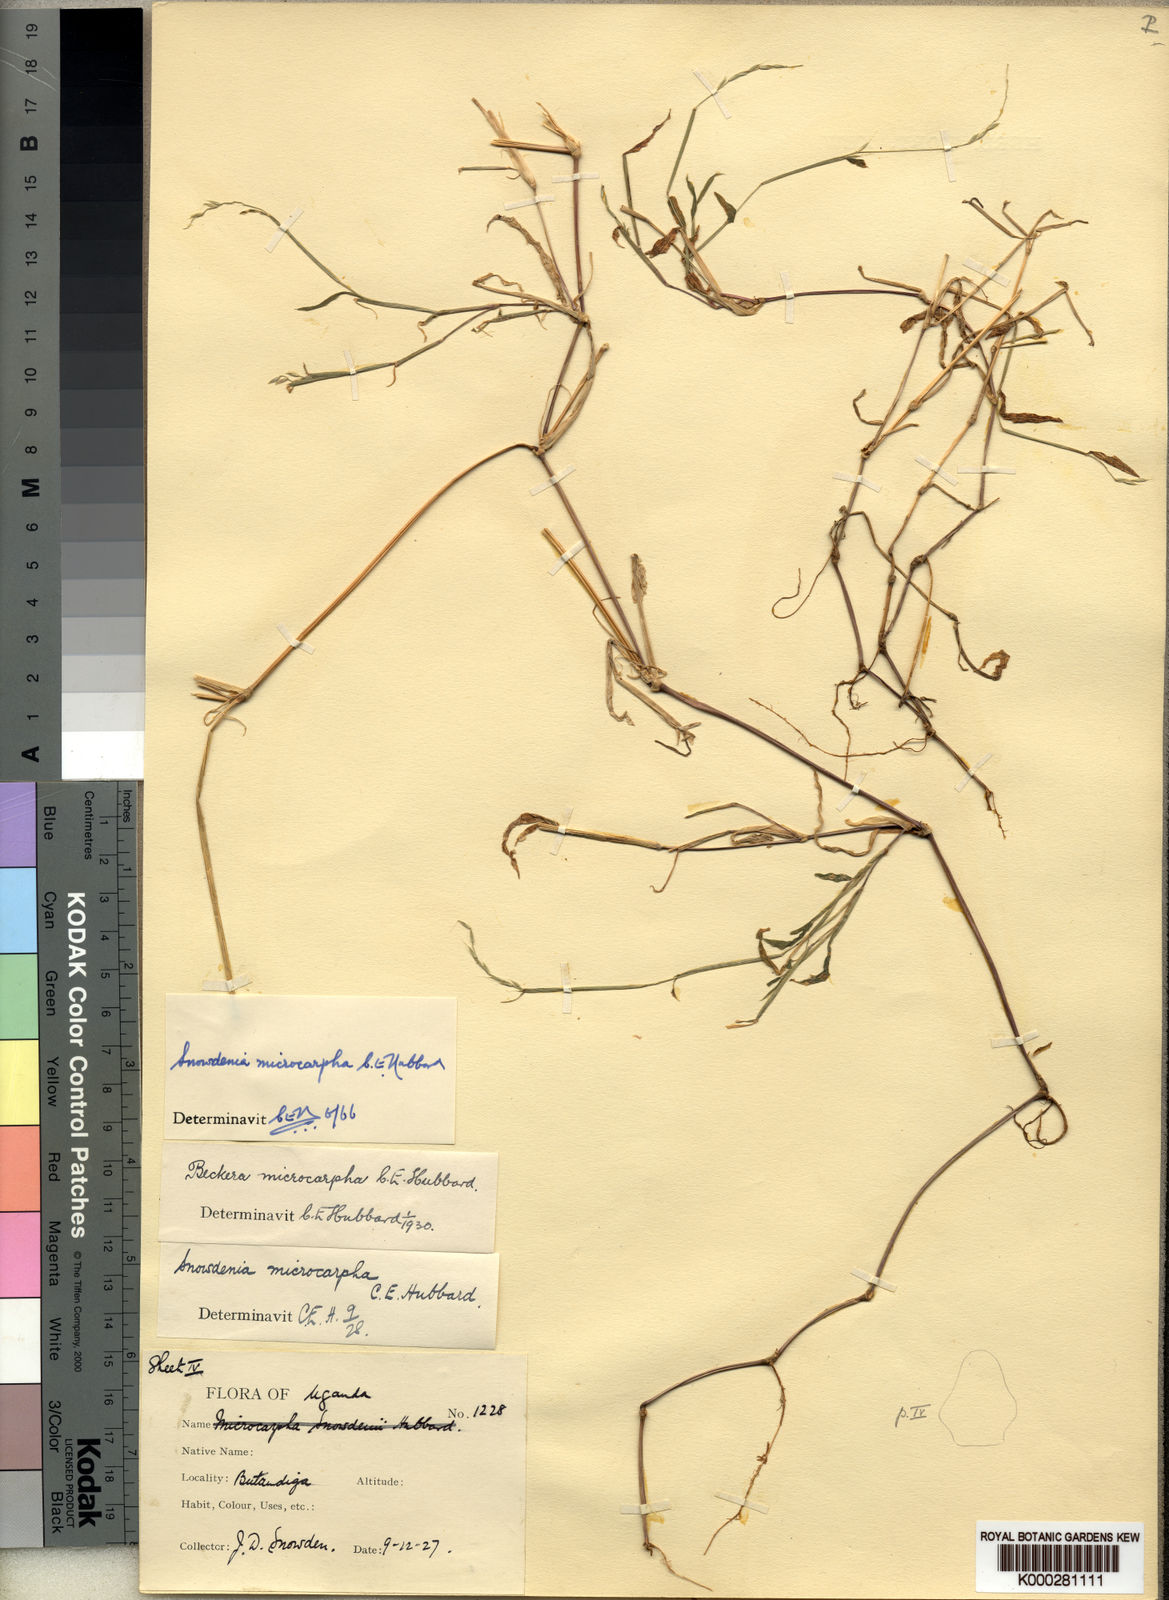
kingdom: Plantae
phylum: Tracheophyta
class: Liliopsida
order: Poales
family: Poaceae
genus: Snowdenia
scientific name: Snowdenia microcarpha
